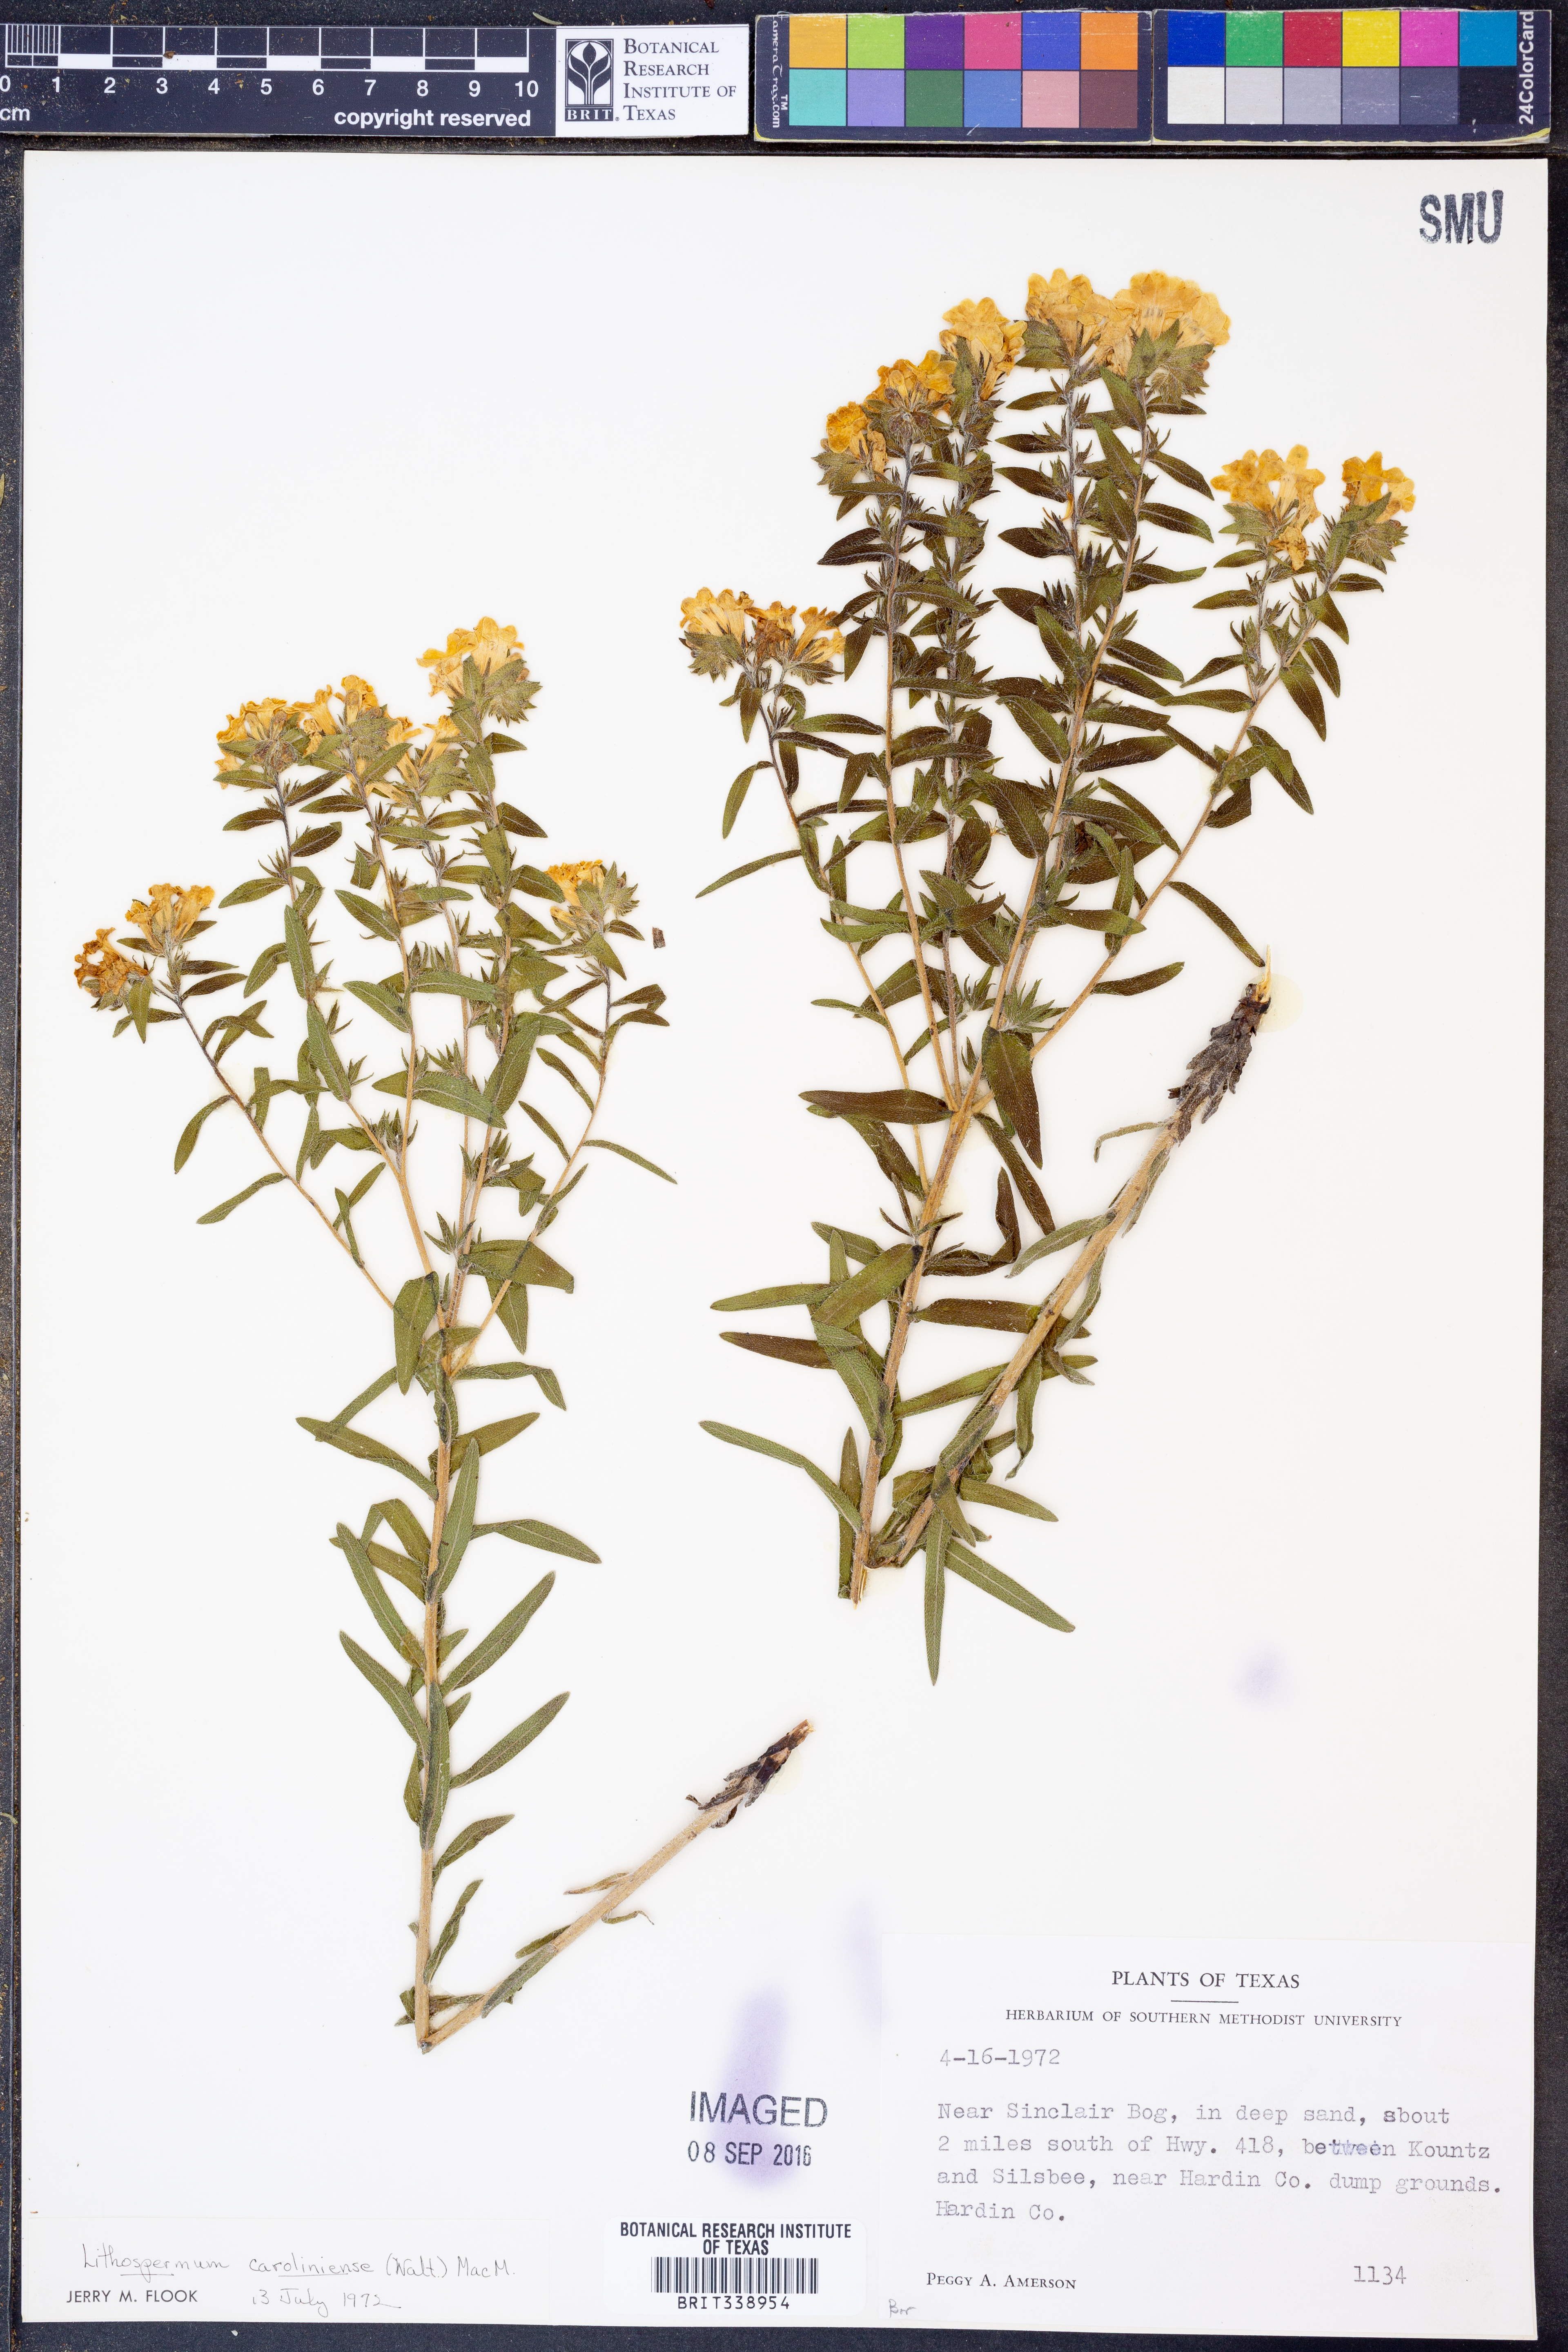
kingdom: Plantae
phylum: Tracheophyta
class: Magnoliopsida
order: Boraginales
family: Boraginaceae
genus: Lithospermum
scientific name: Lithospermum caroliniense
